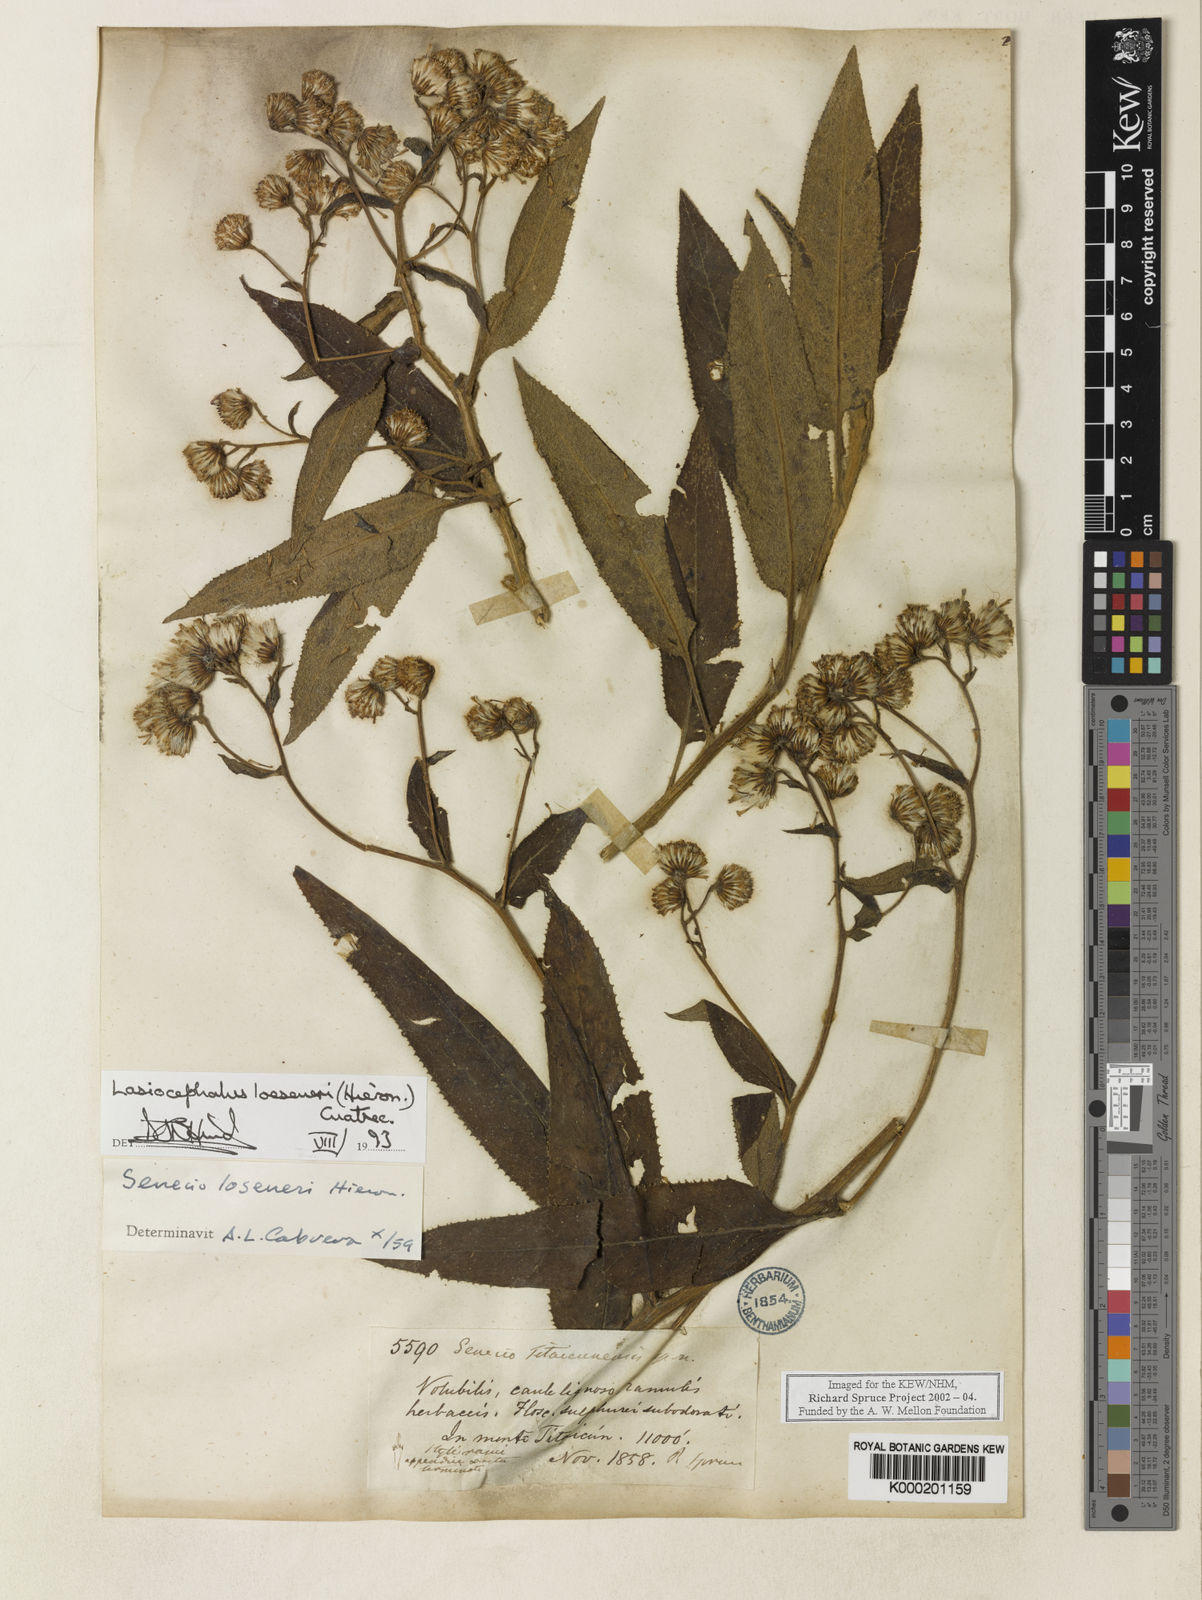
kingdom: Plantae
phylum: Tracheophyta
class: Magnoliopsida
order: Asterales
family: Asteraceae
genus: Aetheolaena
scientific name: Aetheolaena betonicifolia
